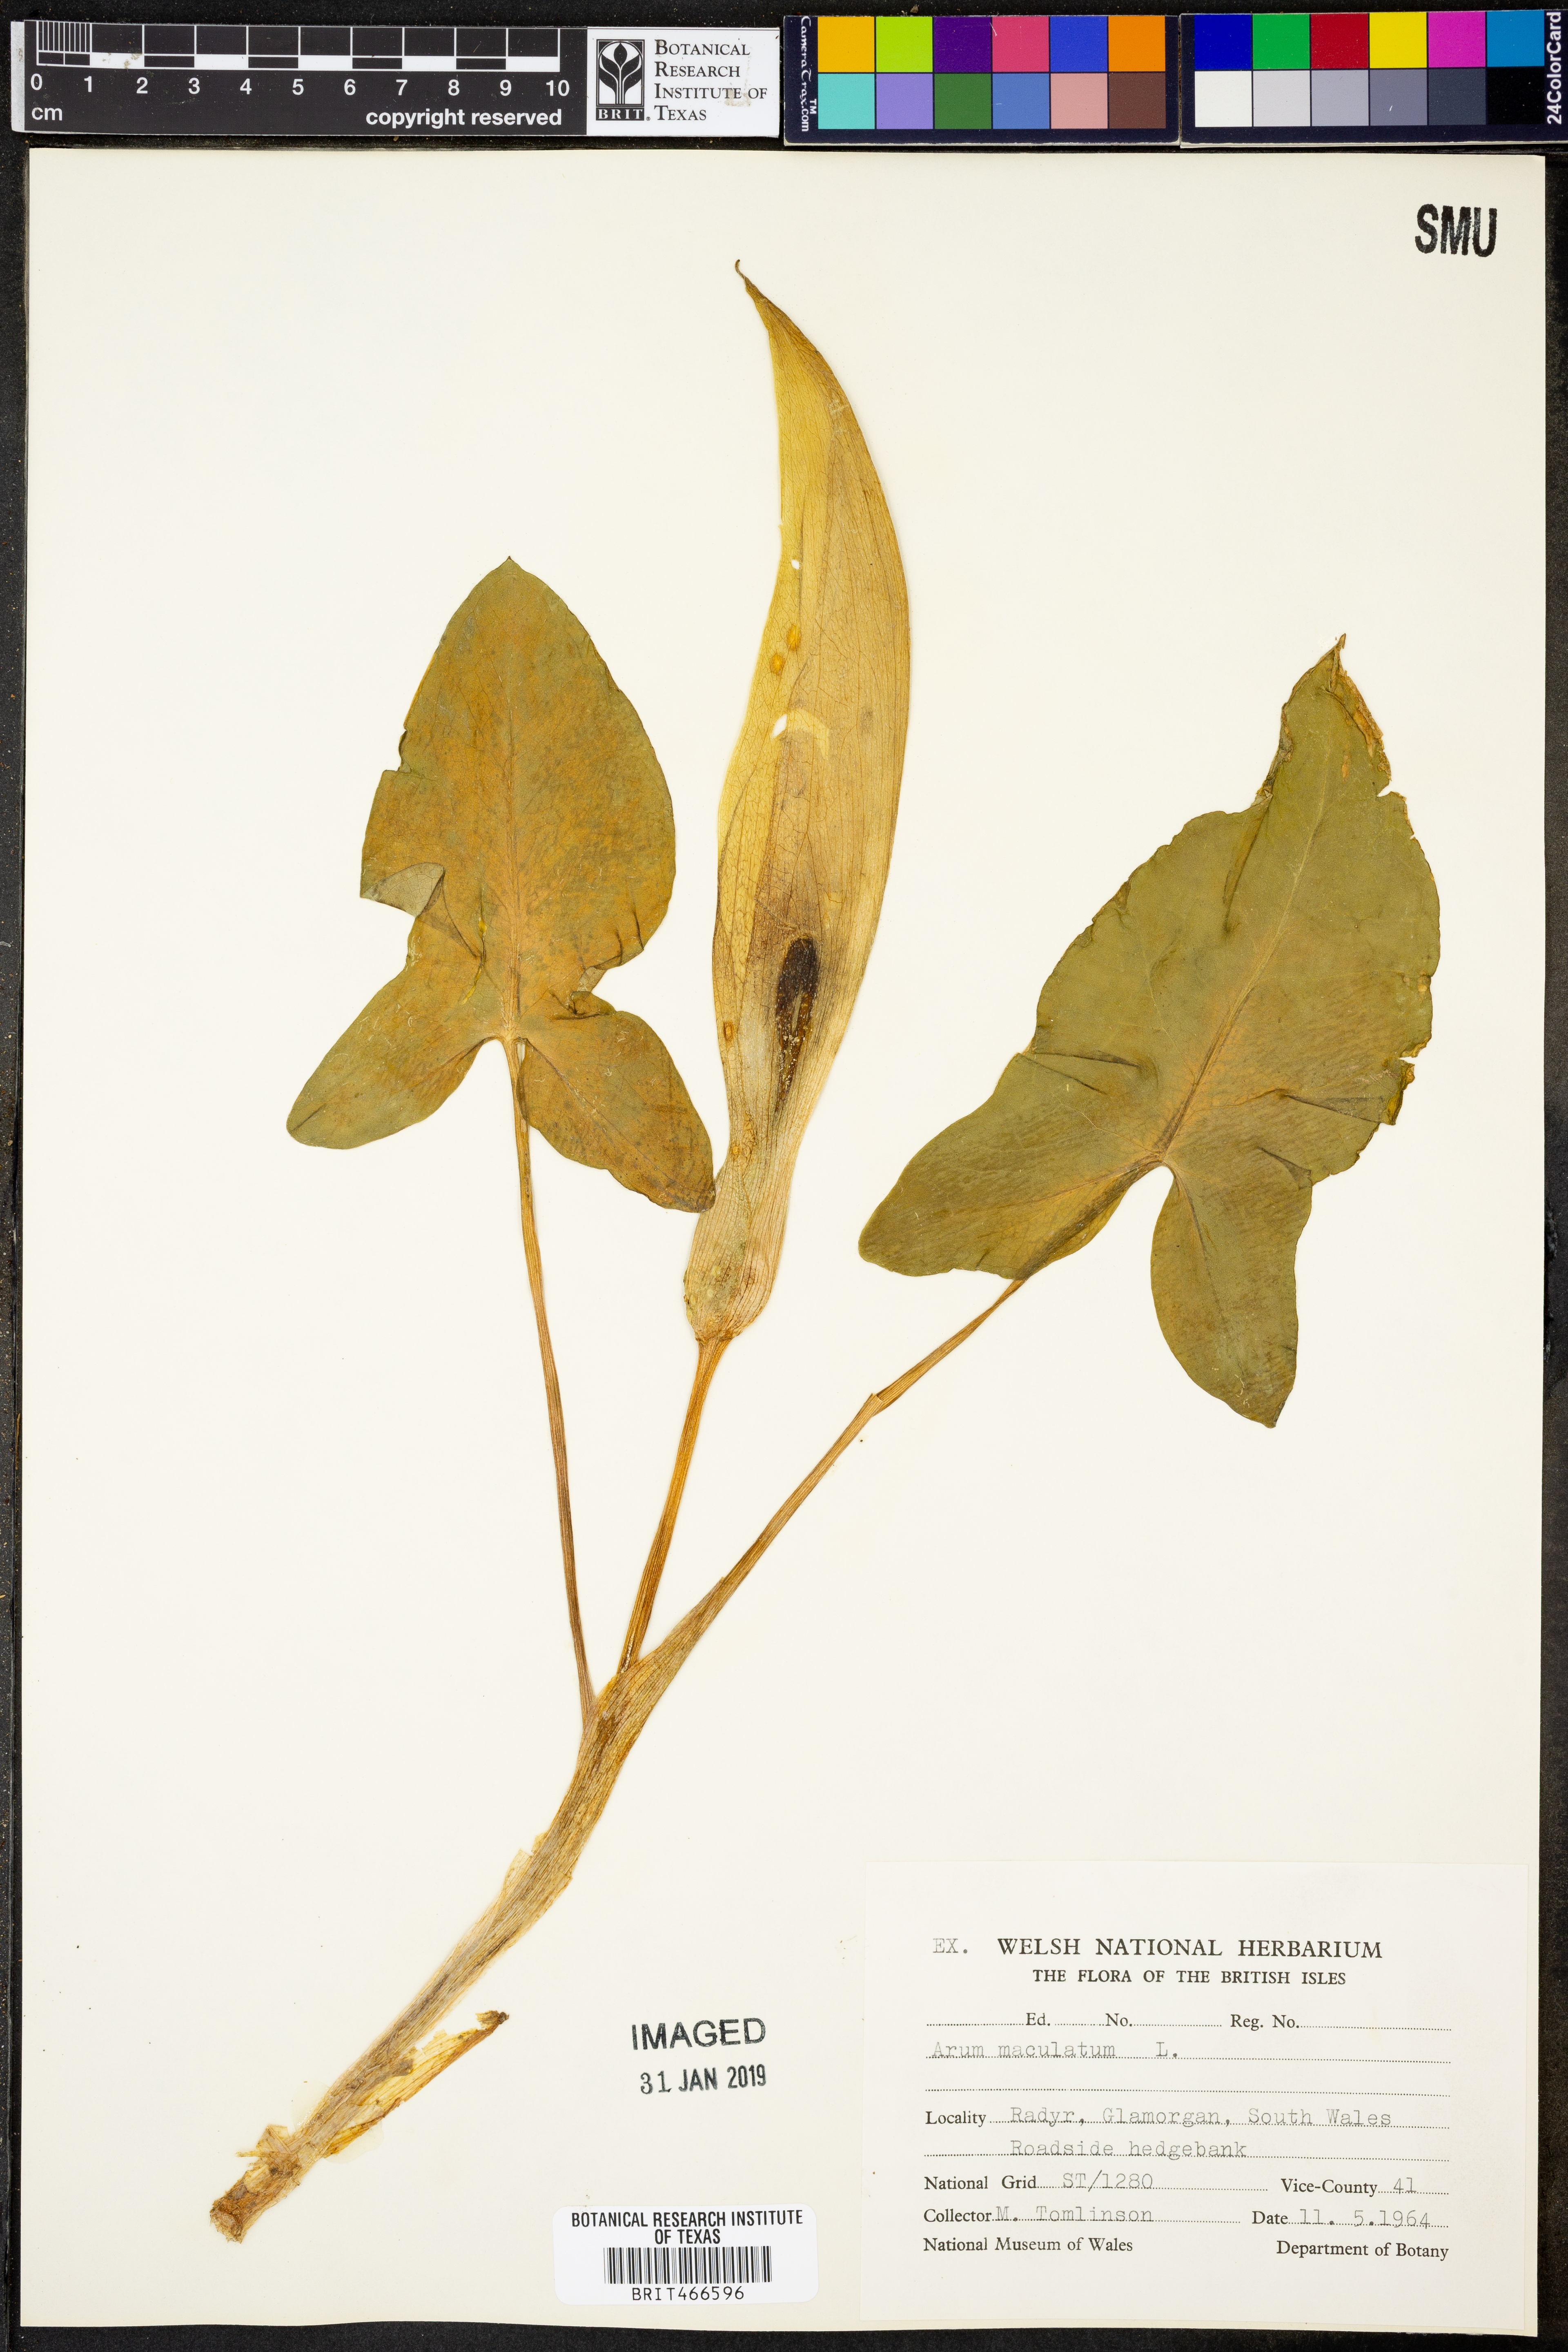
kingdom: Plantae
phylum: Tracheophyta
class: Liliopsida
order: Alismatales
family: Araceae
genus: Arum
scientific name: Arum maculatum
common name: Lords-and-ladies
